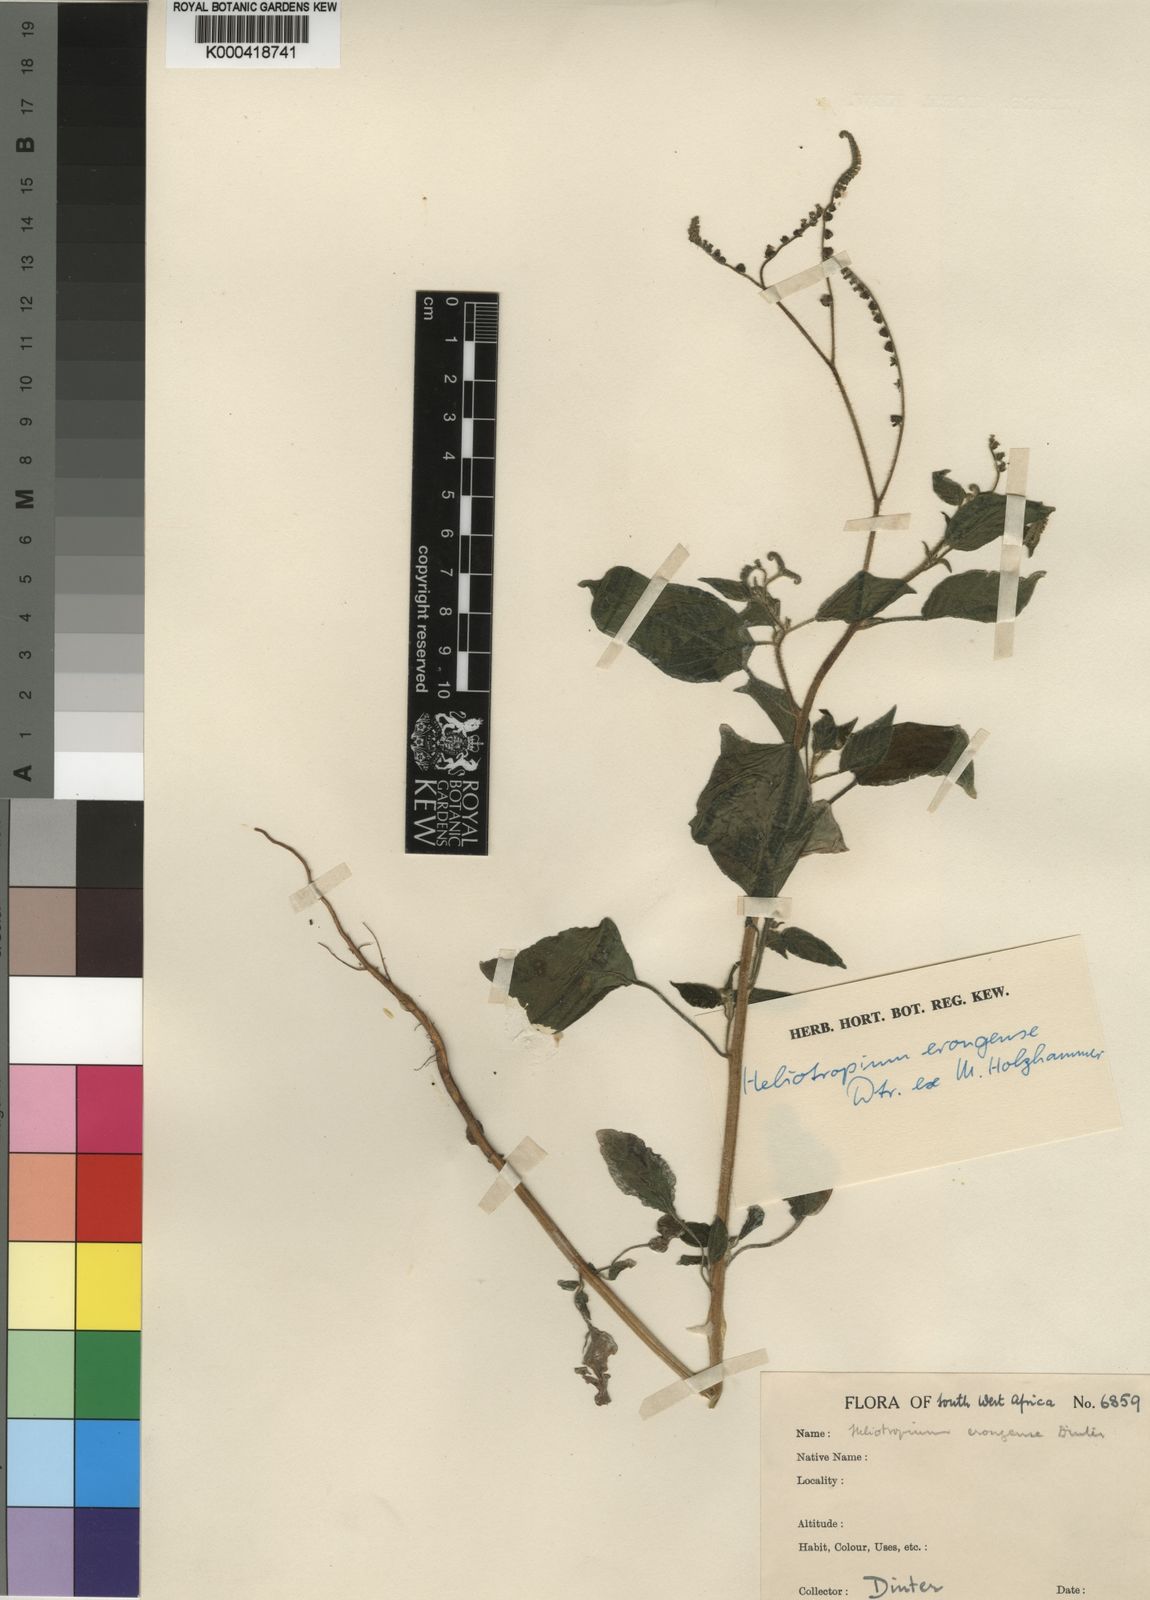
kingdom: Plantae
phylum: Tracheophyta
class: Magnoliopsida
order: Boraginales
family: Heliotropiaceae
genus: Heliotropium
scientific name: Heliotropium
